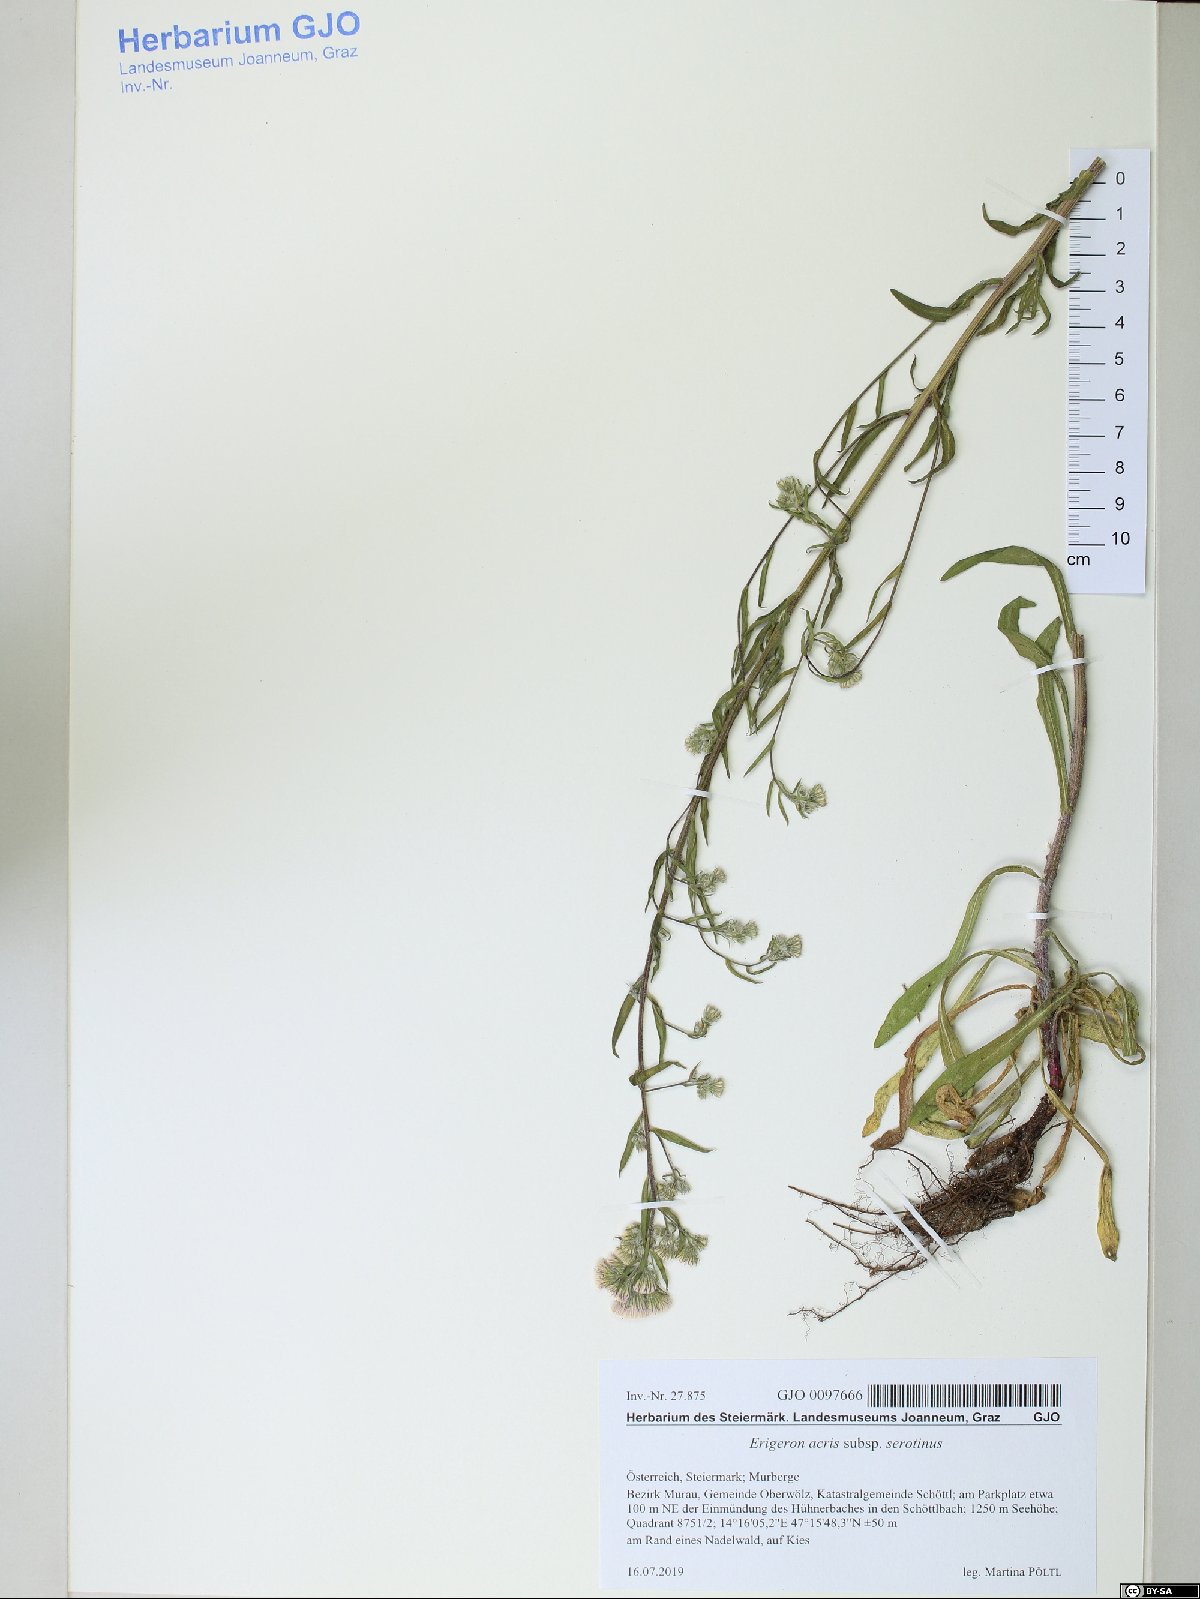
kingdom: Plantae
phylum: Tracheophyta
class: Magnoliopsida
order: Asterales
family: Asteraceae
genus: Erigeron
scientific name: Erigeron muralis
